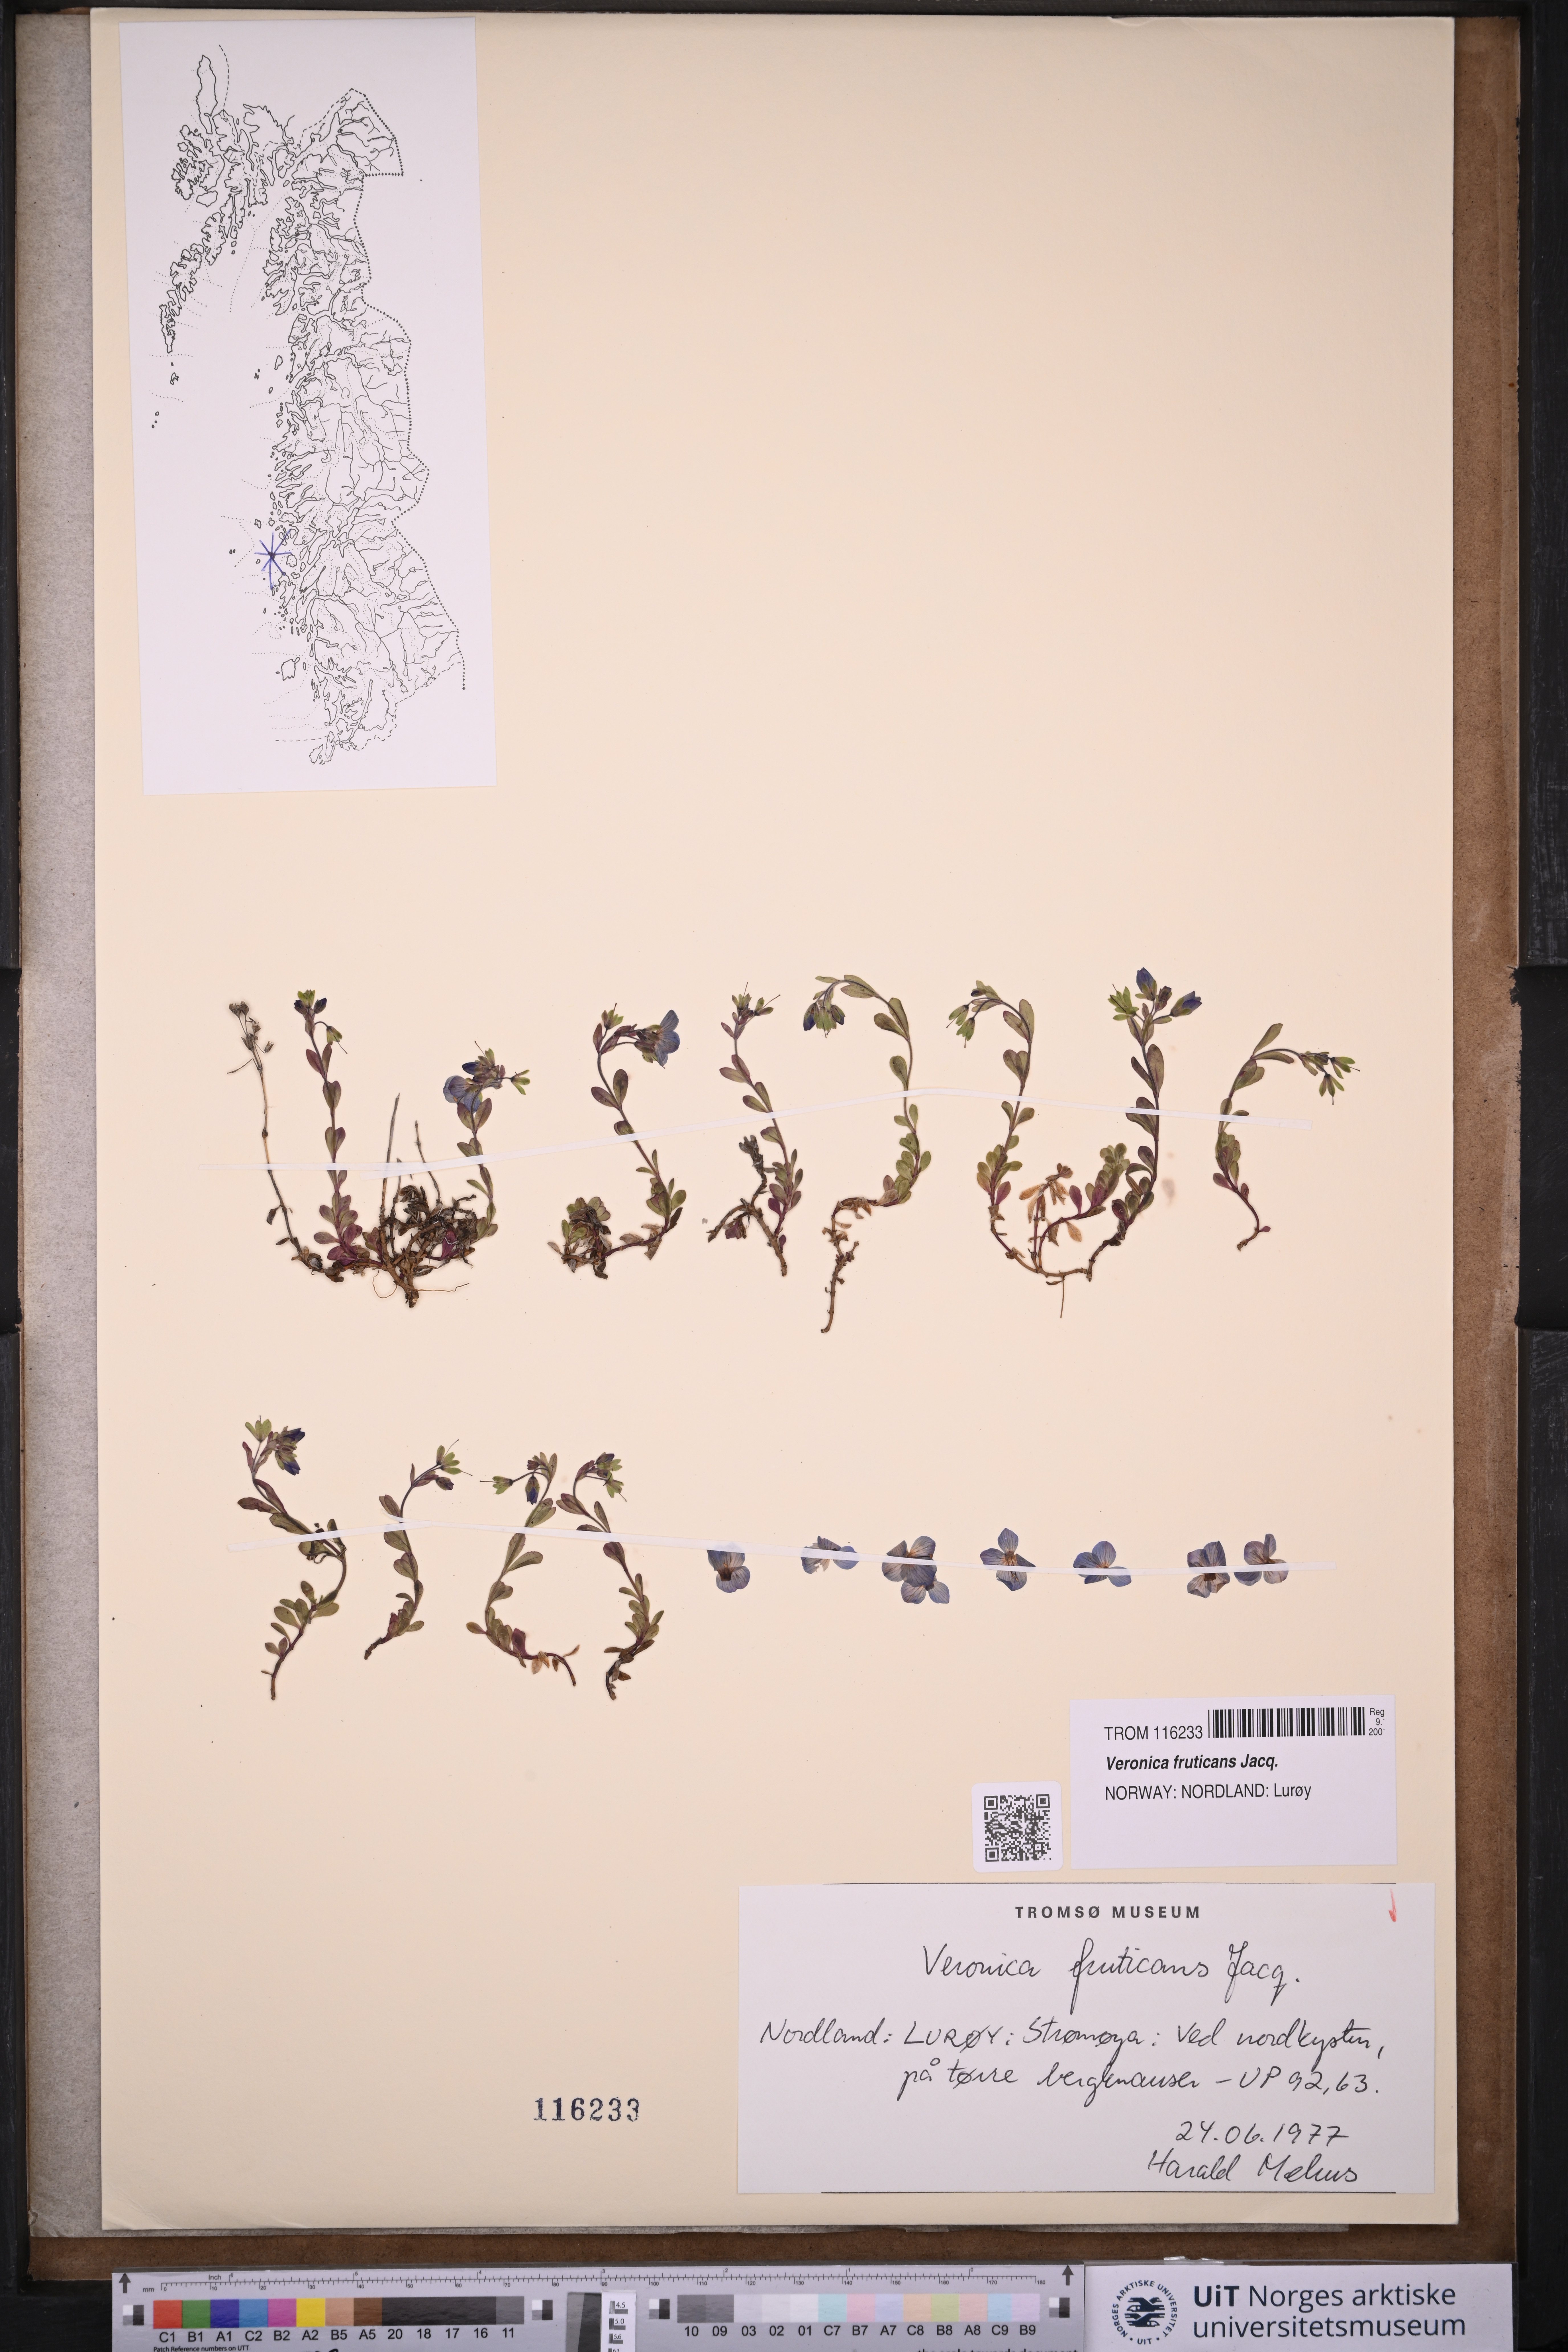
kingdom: Plantae
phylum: Tracheophyta
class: Magnoliopsida
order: Lamiales
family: Plantaginaceae
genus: Veronica
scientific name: Veronica fruticans
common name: Rock speedwell
